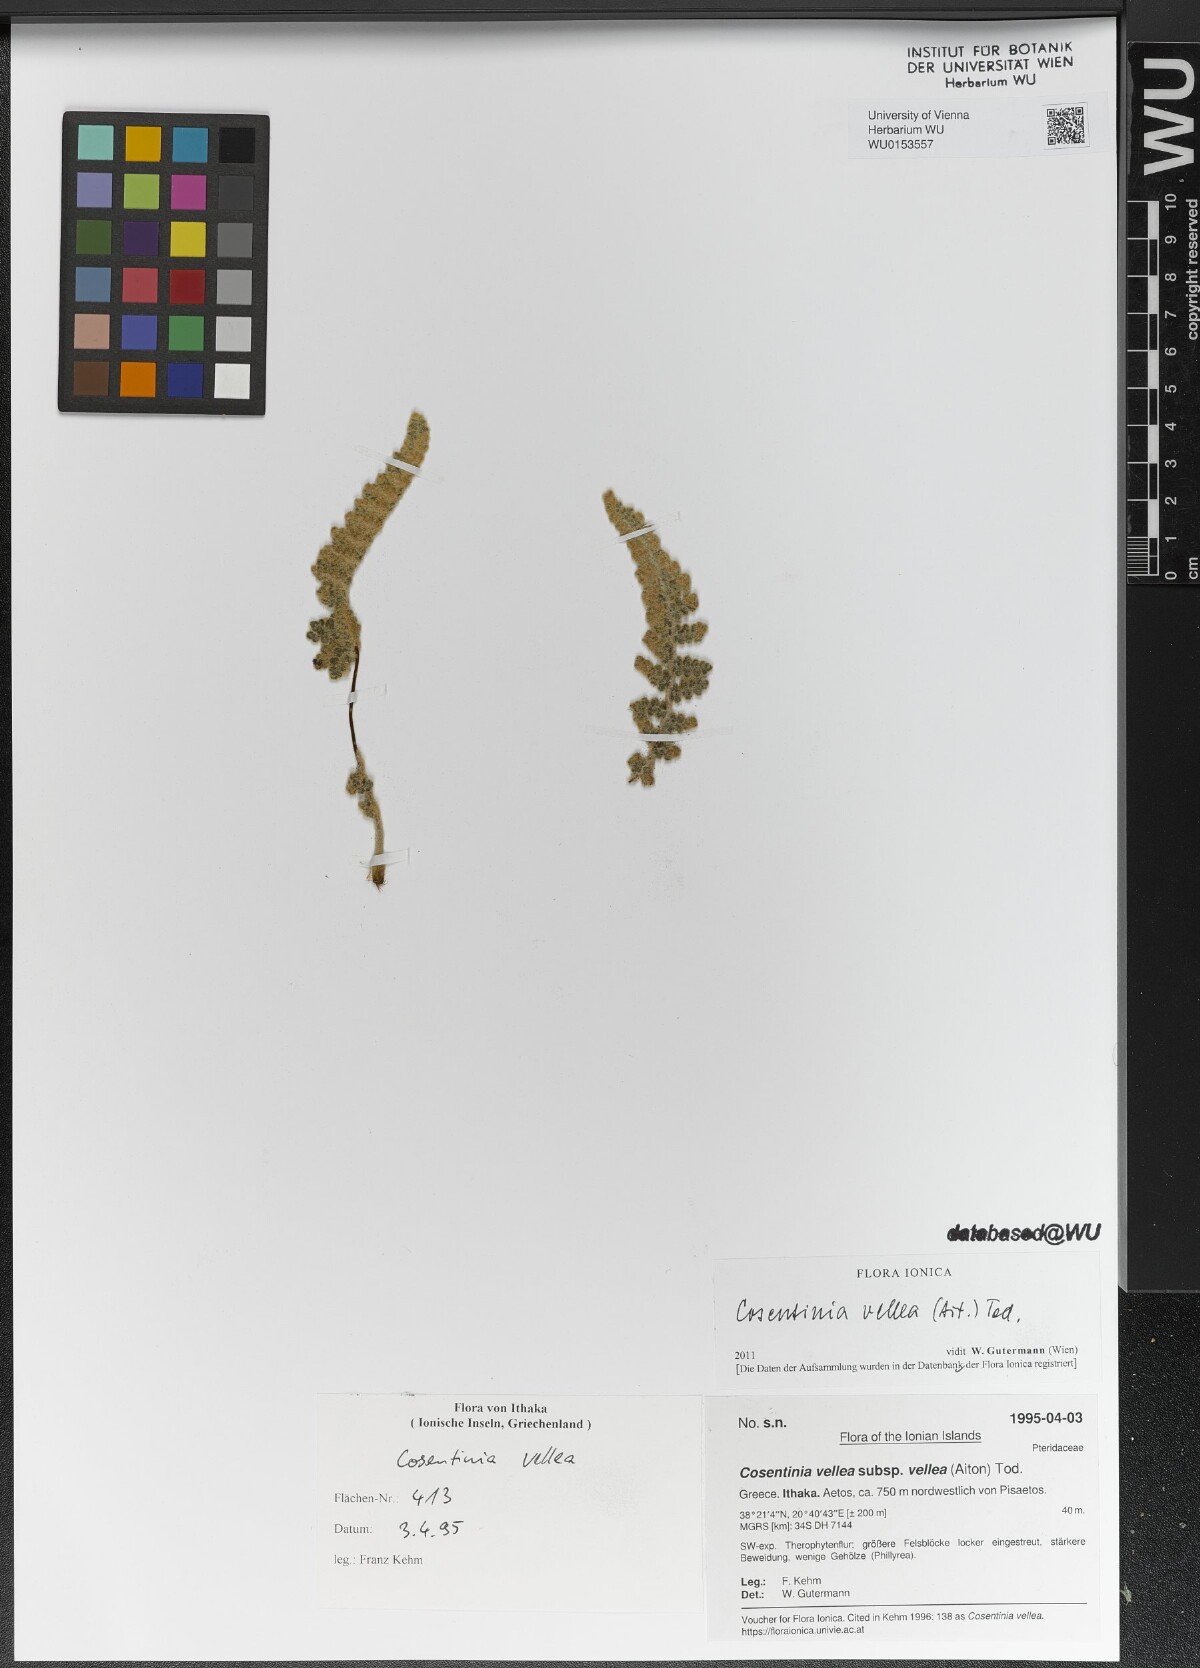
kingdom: Plantae
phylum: Tracheophyta
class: Polypodiopsida
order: Polypodiales
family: Pteridaceae
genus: Cosentinia
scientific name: Cosentinia vellea
